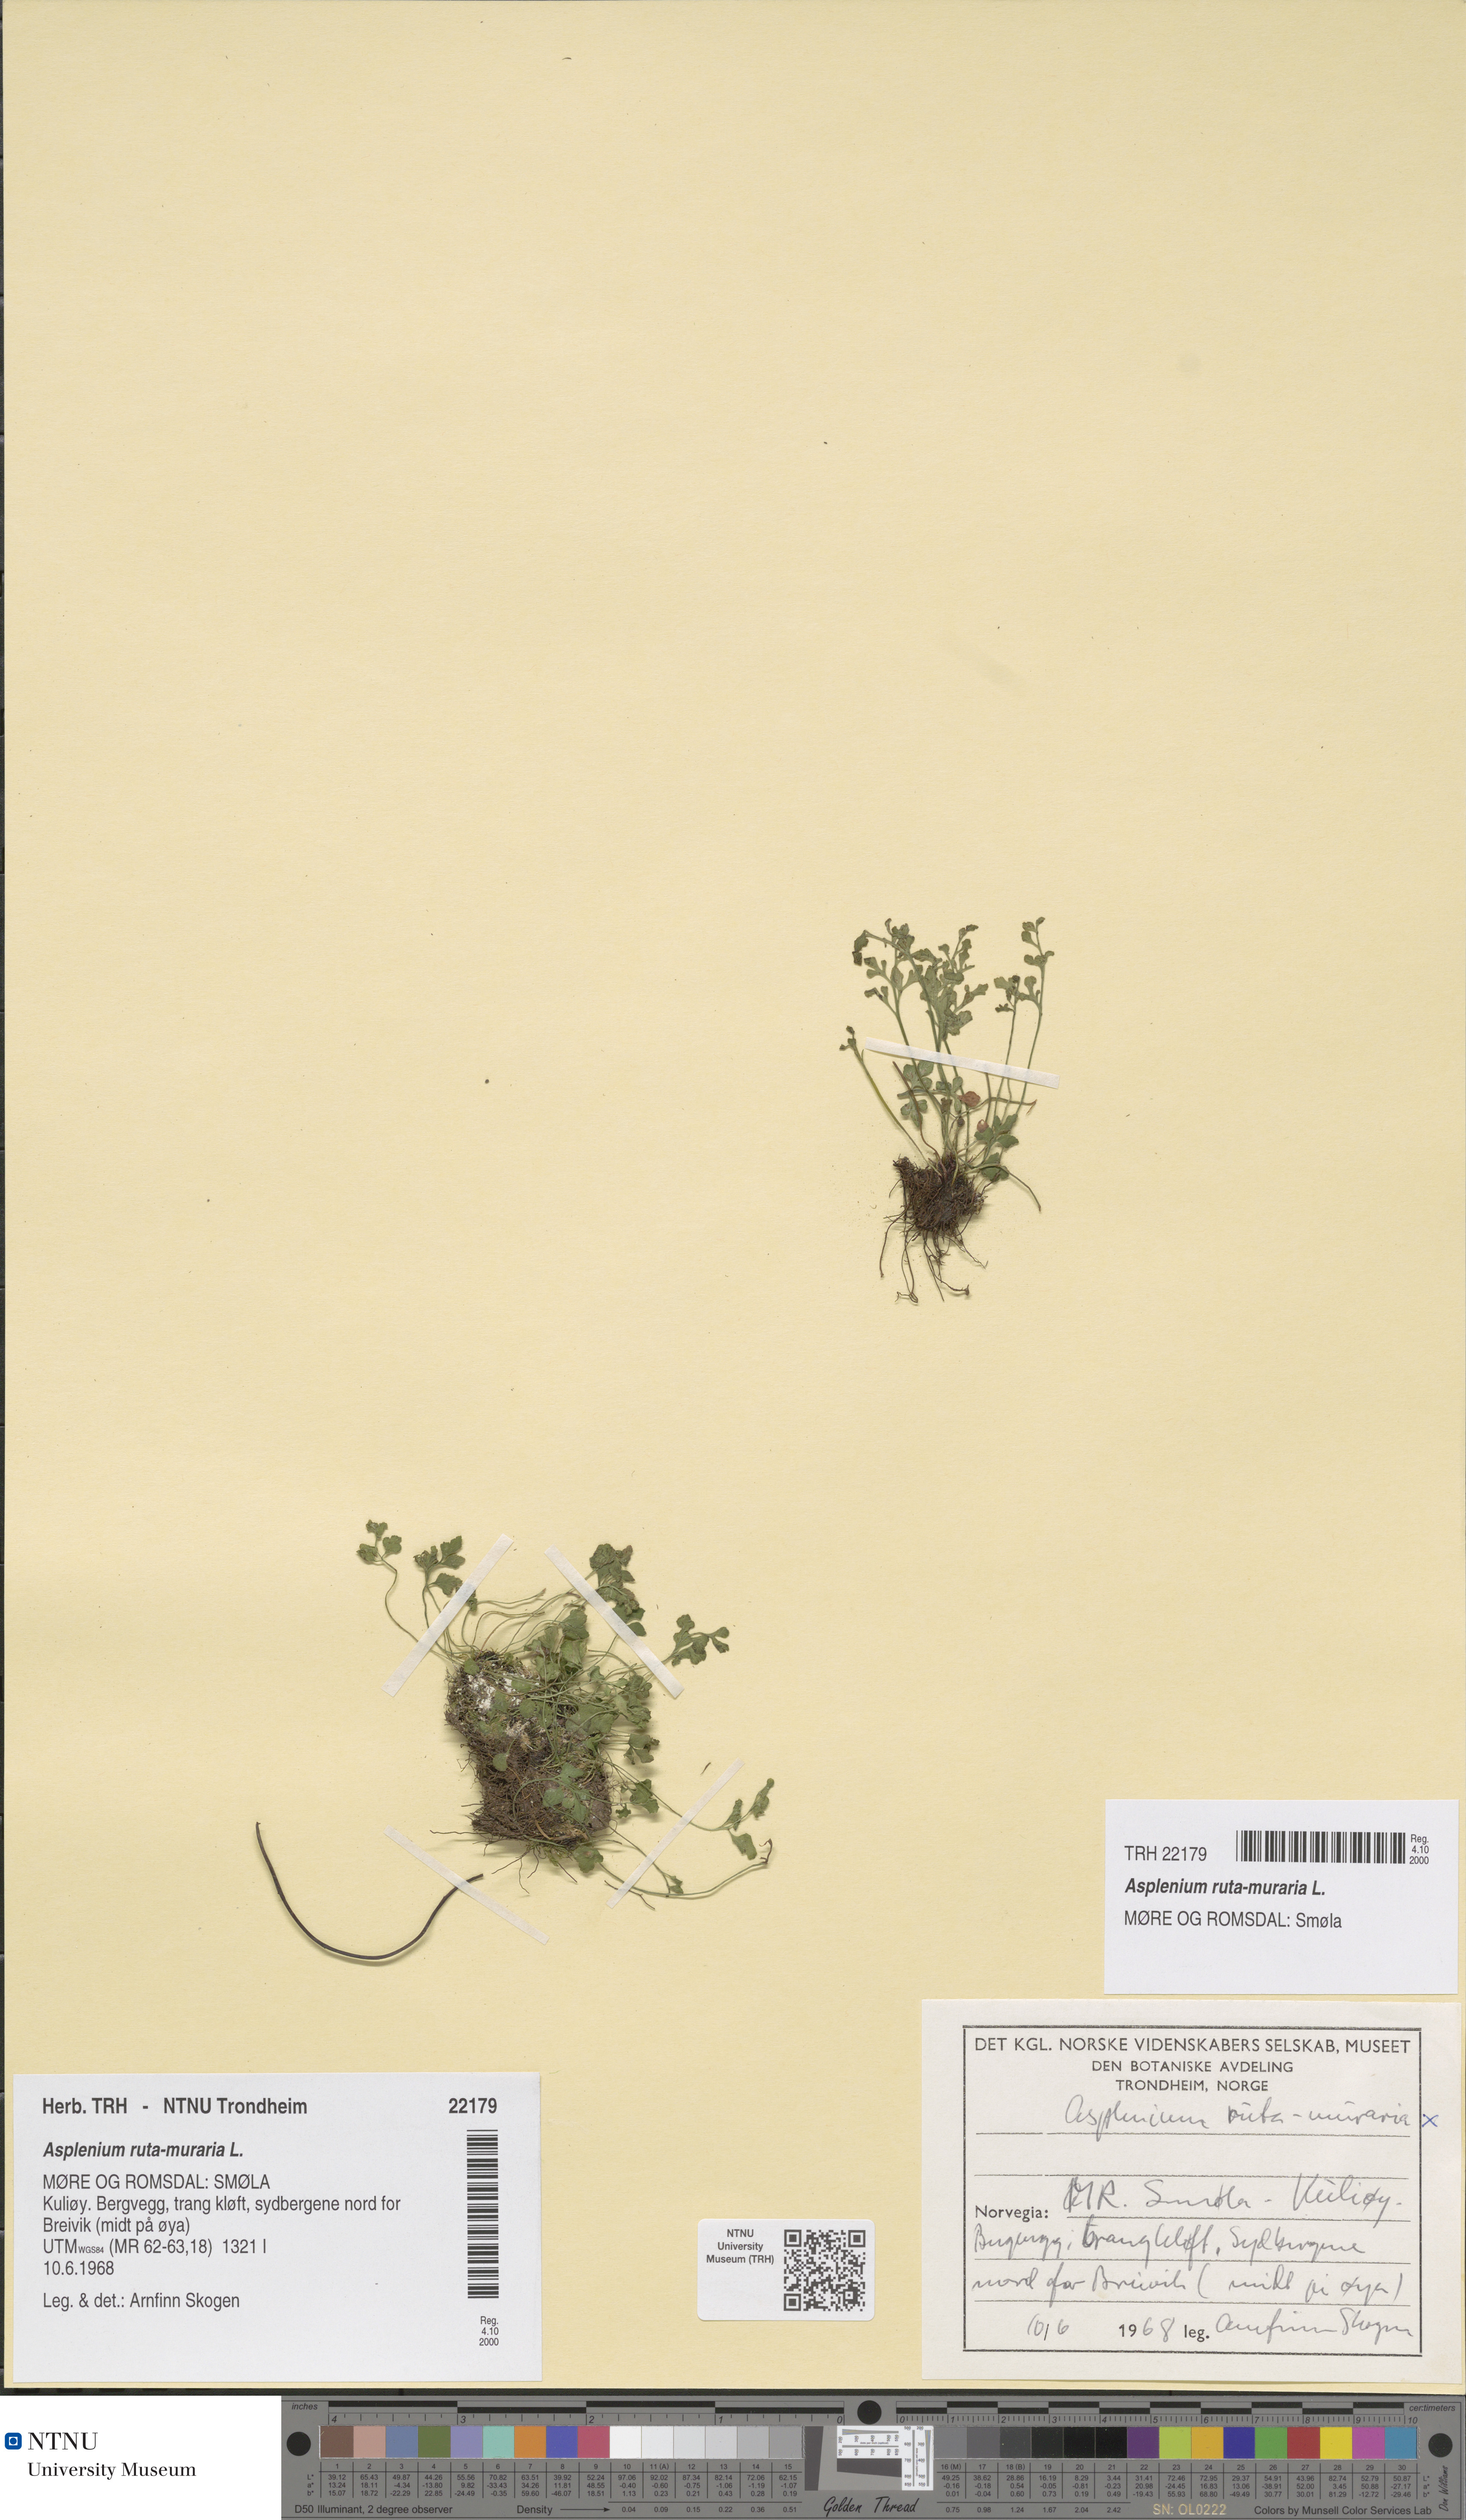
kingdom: Plantae
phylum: Tracheophyta
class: Polypodiopsida
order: Polypodiales
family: Aspleniaceae
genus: Asplenium
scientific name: Asplenium ruta-muraria
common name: Wall-rue
